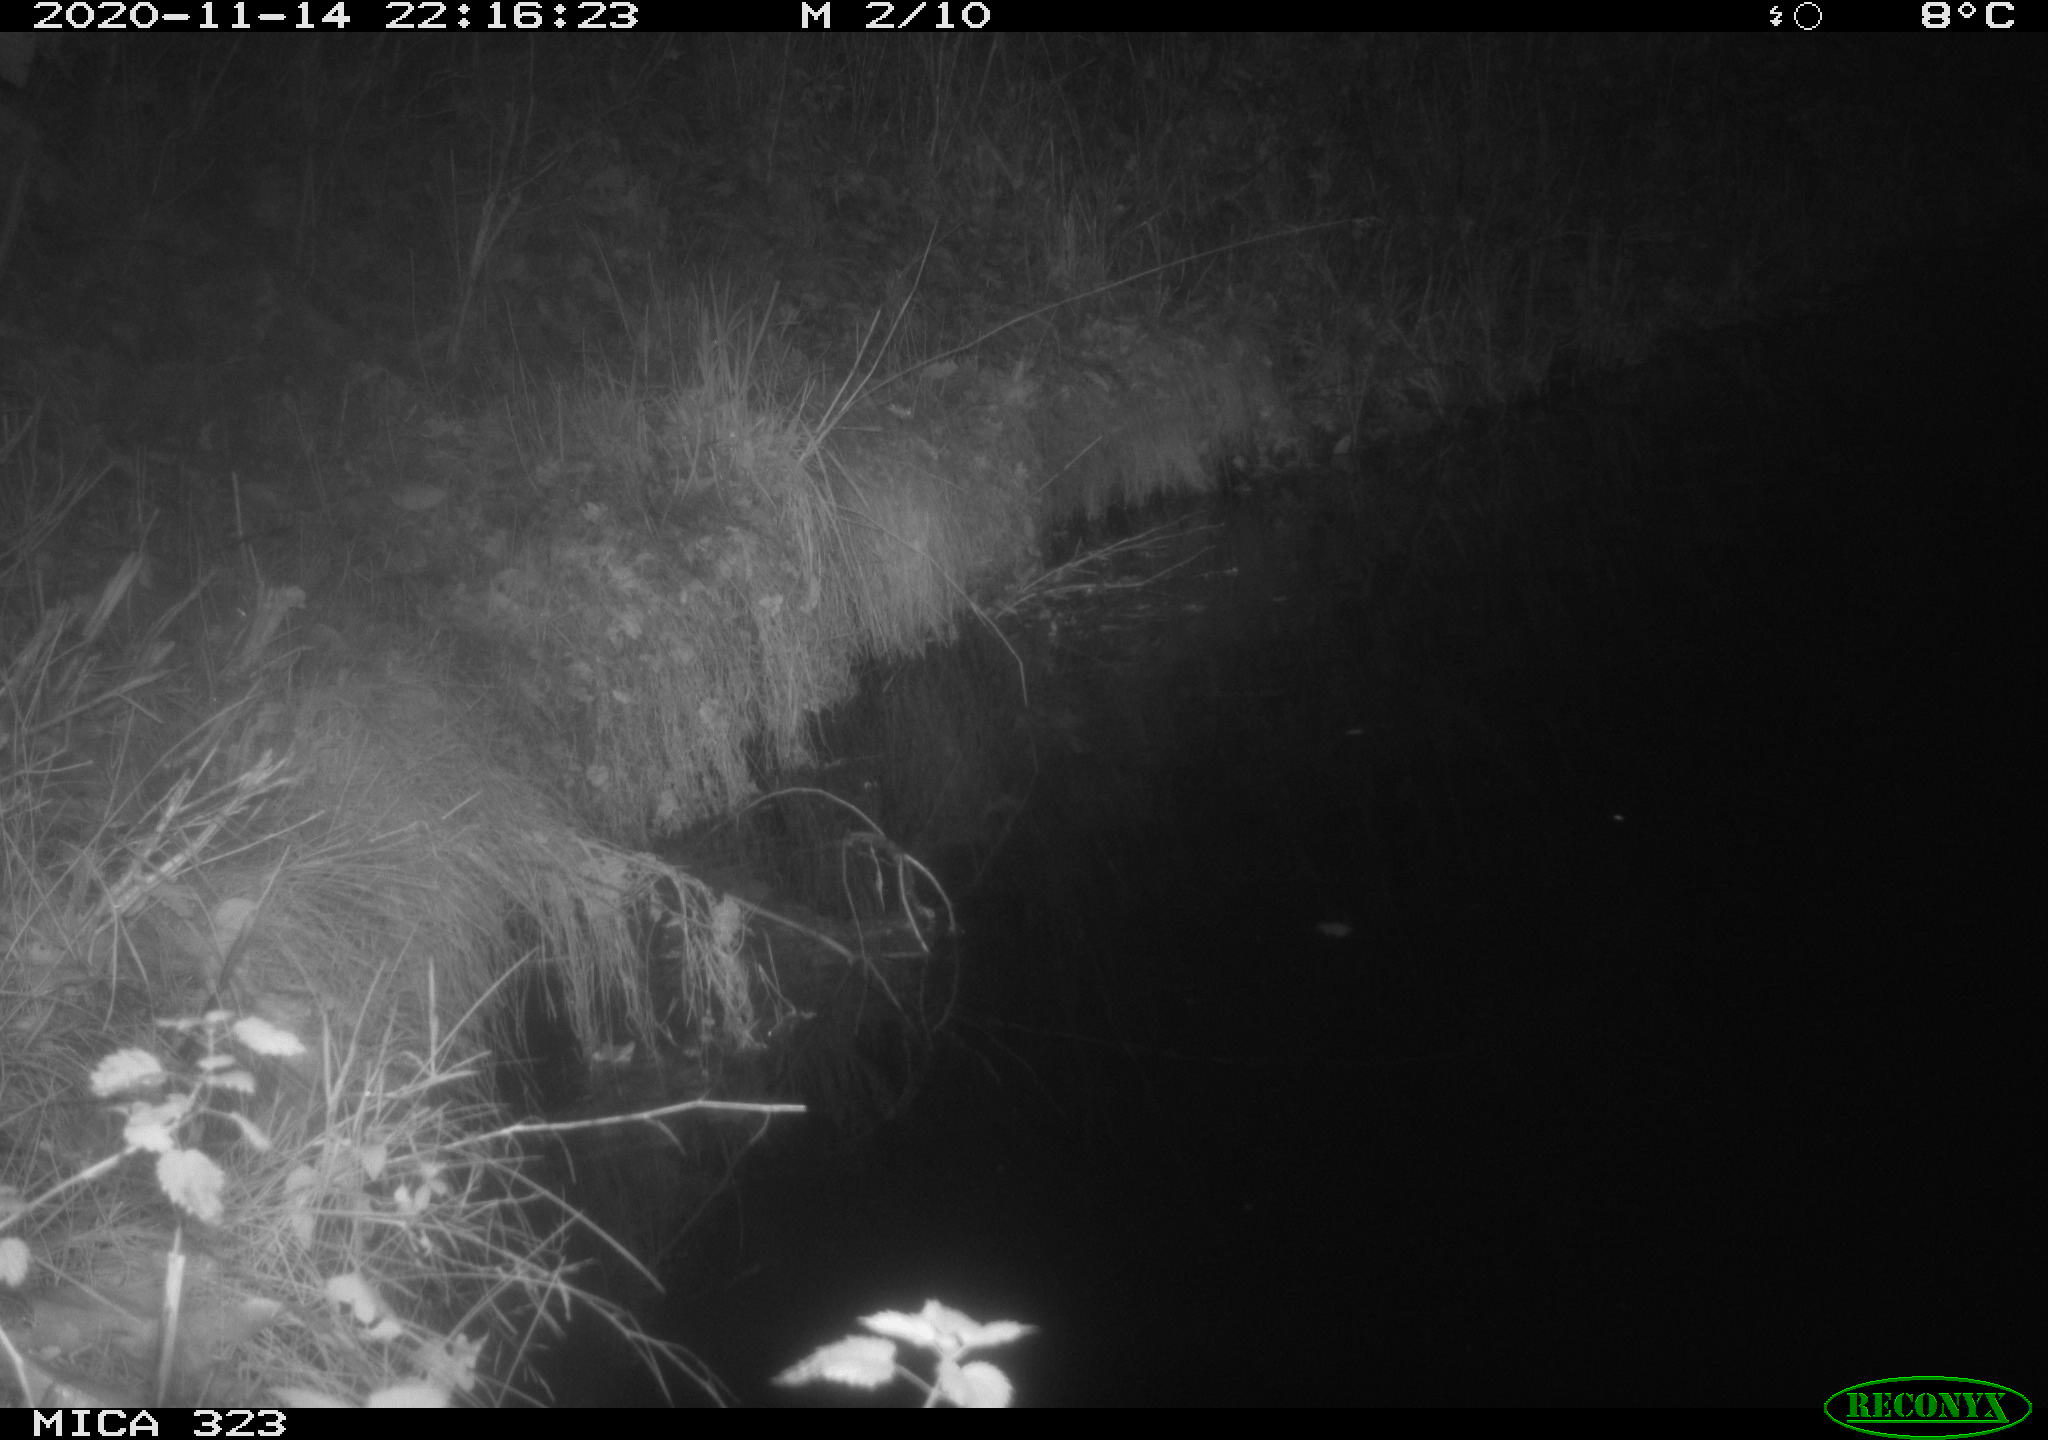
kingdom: Animalia
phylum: Chordata
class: Mammalia
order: Rodentia
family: Muridae
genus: Rattus
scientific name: Rattus norvegicus
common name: Brown rat
